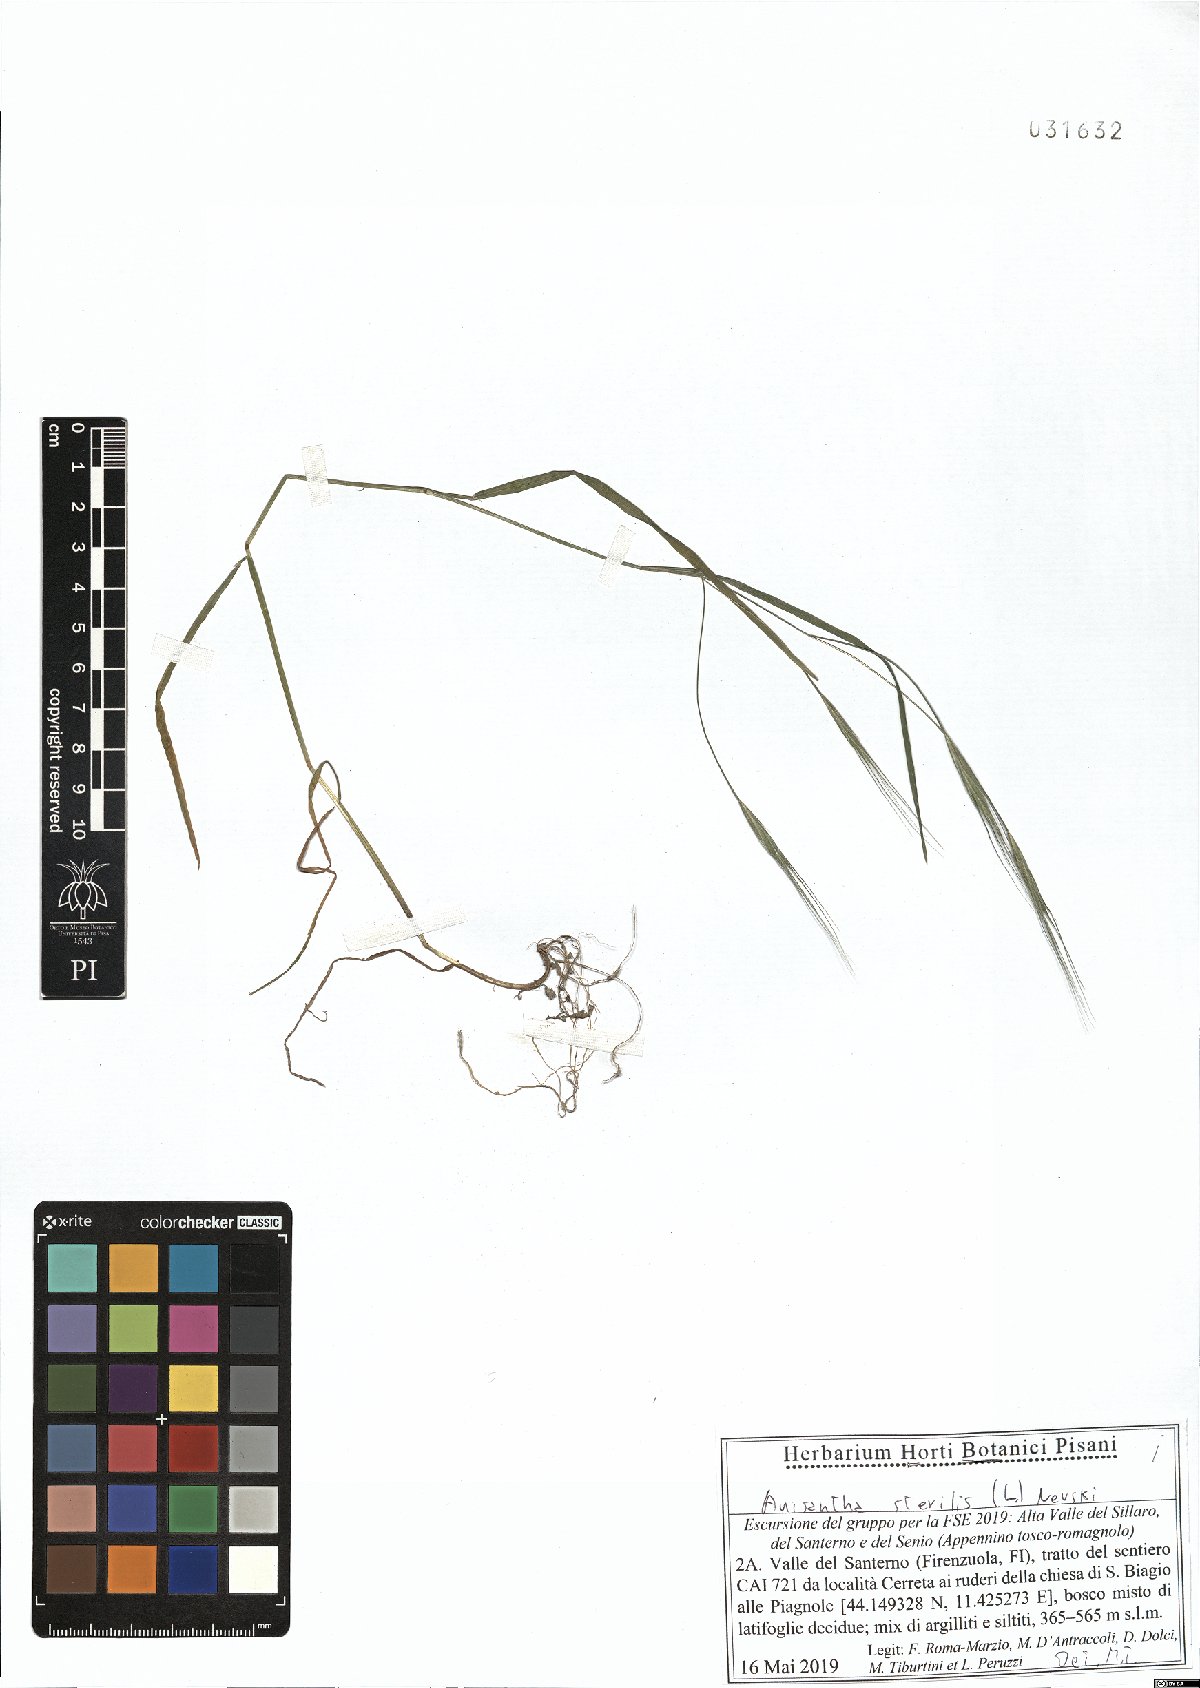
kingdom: Plantae
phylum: Tracheophyta
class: Liliopsida
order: Poales
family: Poaceae
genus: Bromus
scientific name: Bromus sterilis
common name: Poverty brome
